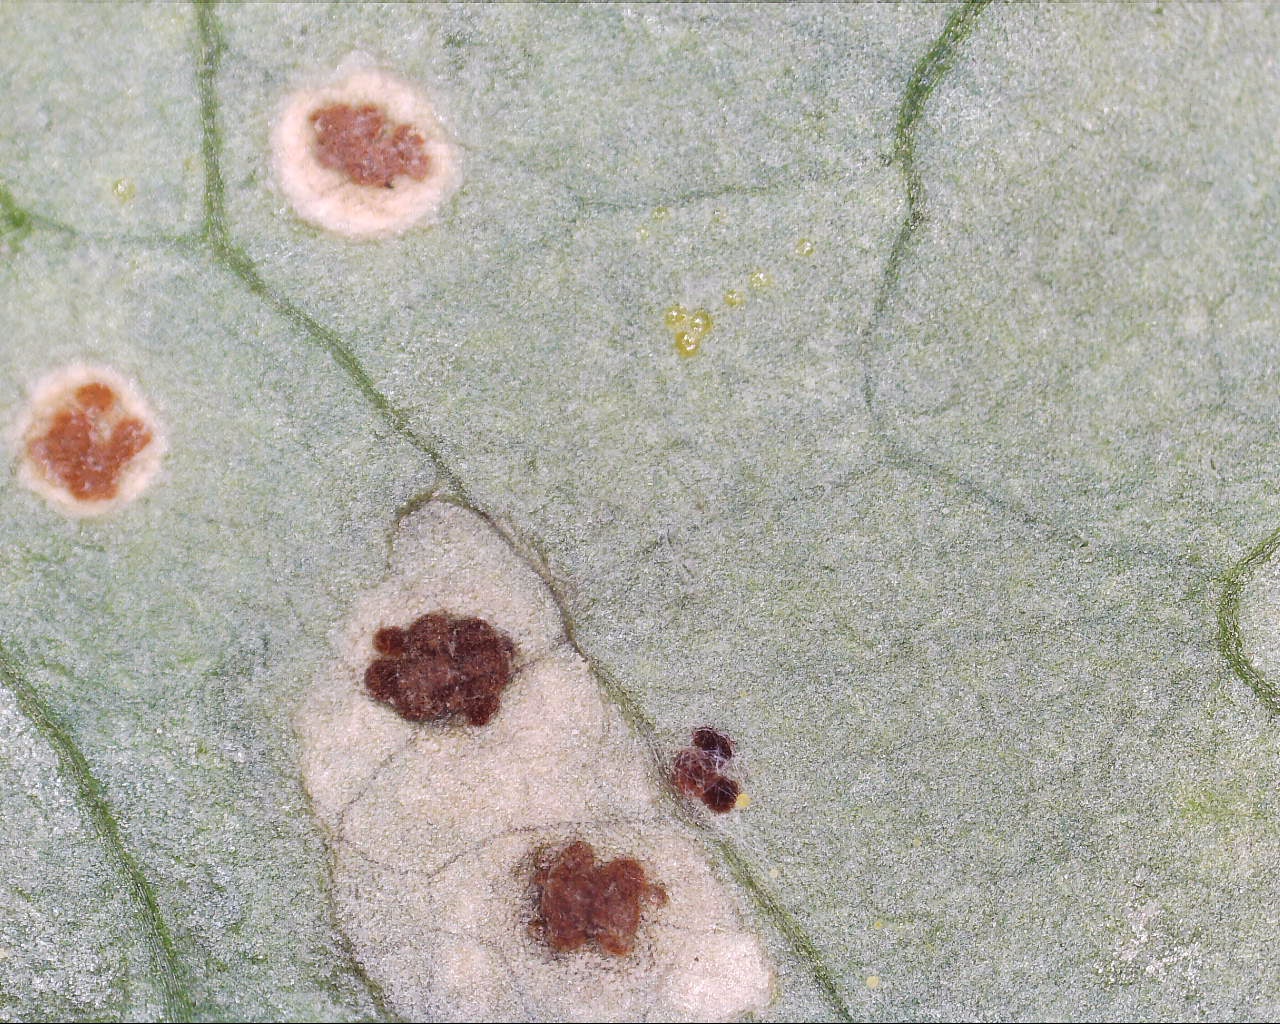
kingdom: Fungi
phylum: Basidiomycota
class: Pucciniomycetes
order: Pucciniales
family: Pucciniaceae
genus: Puccinia
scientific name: Puccinia circaeae
